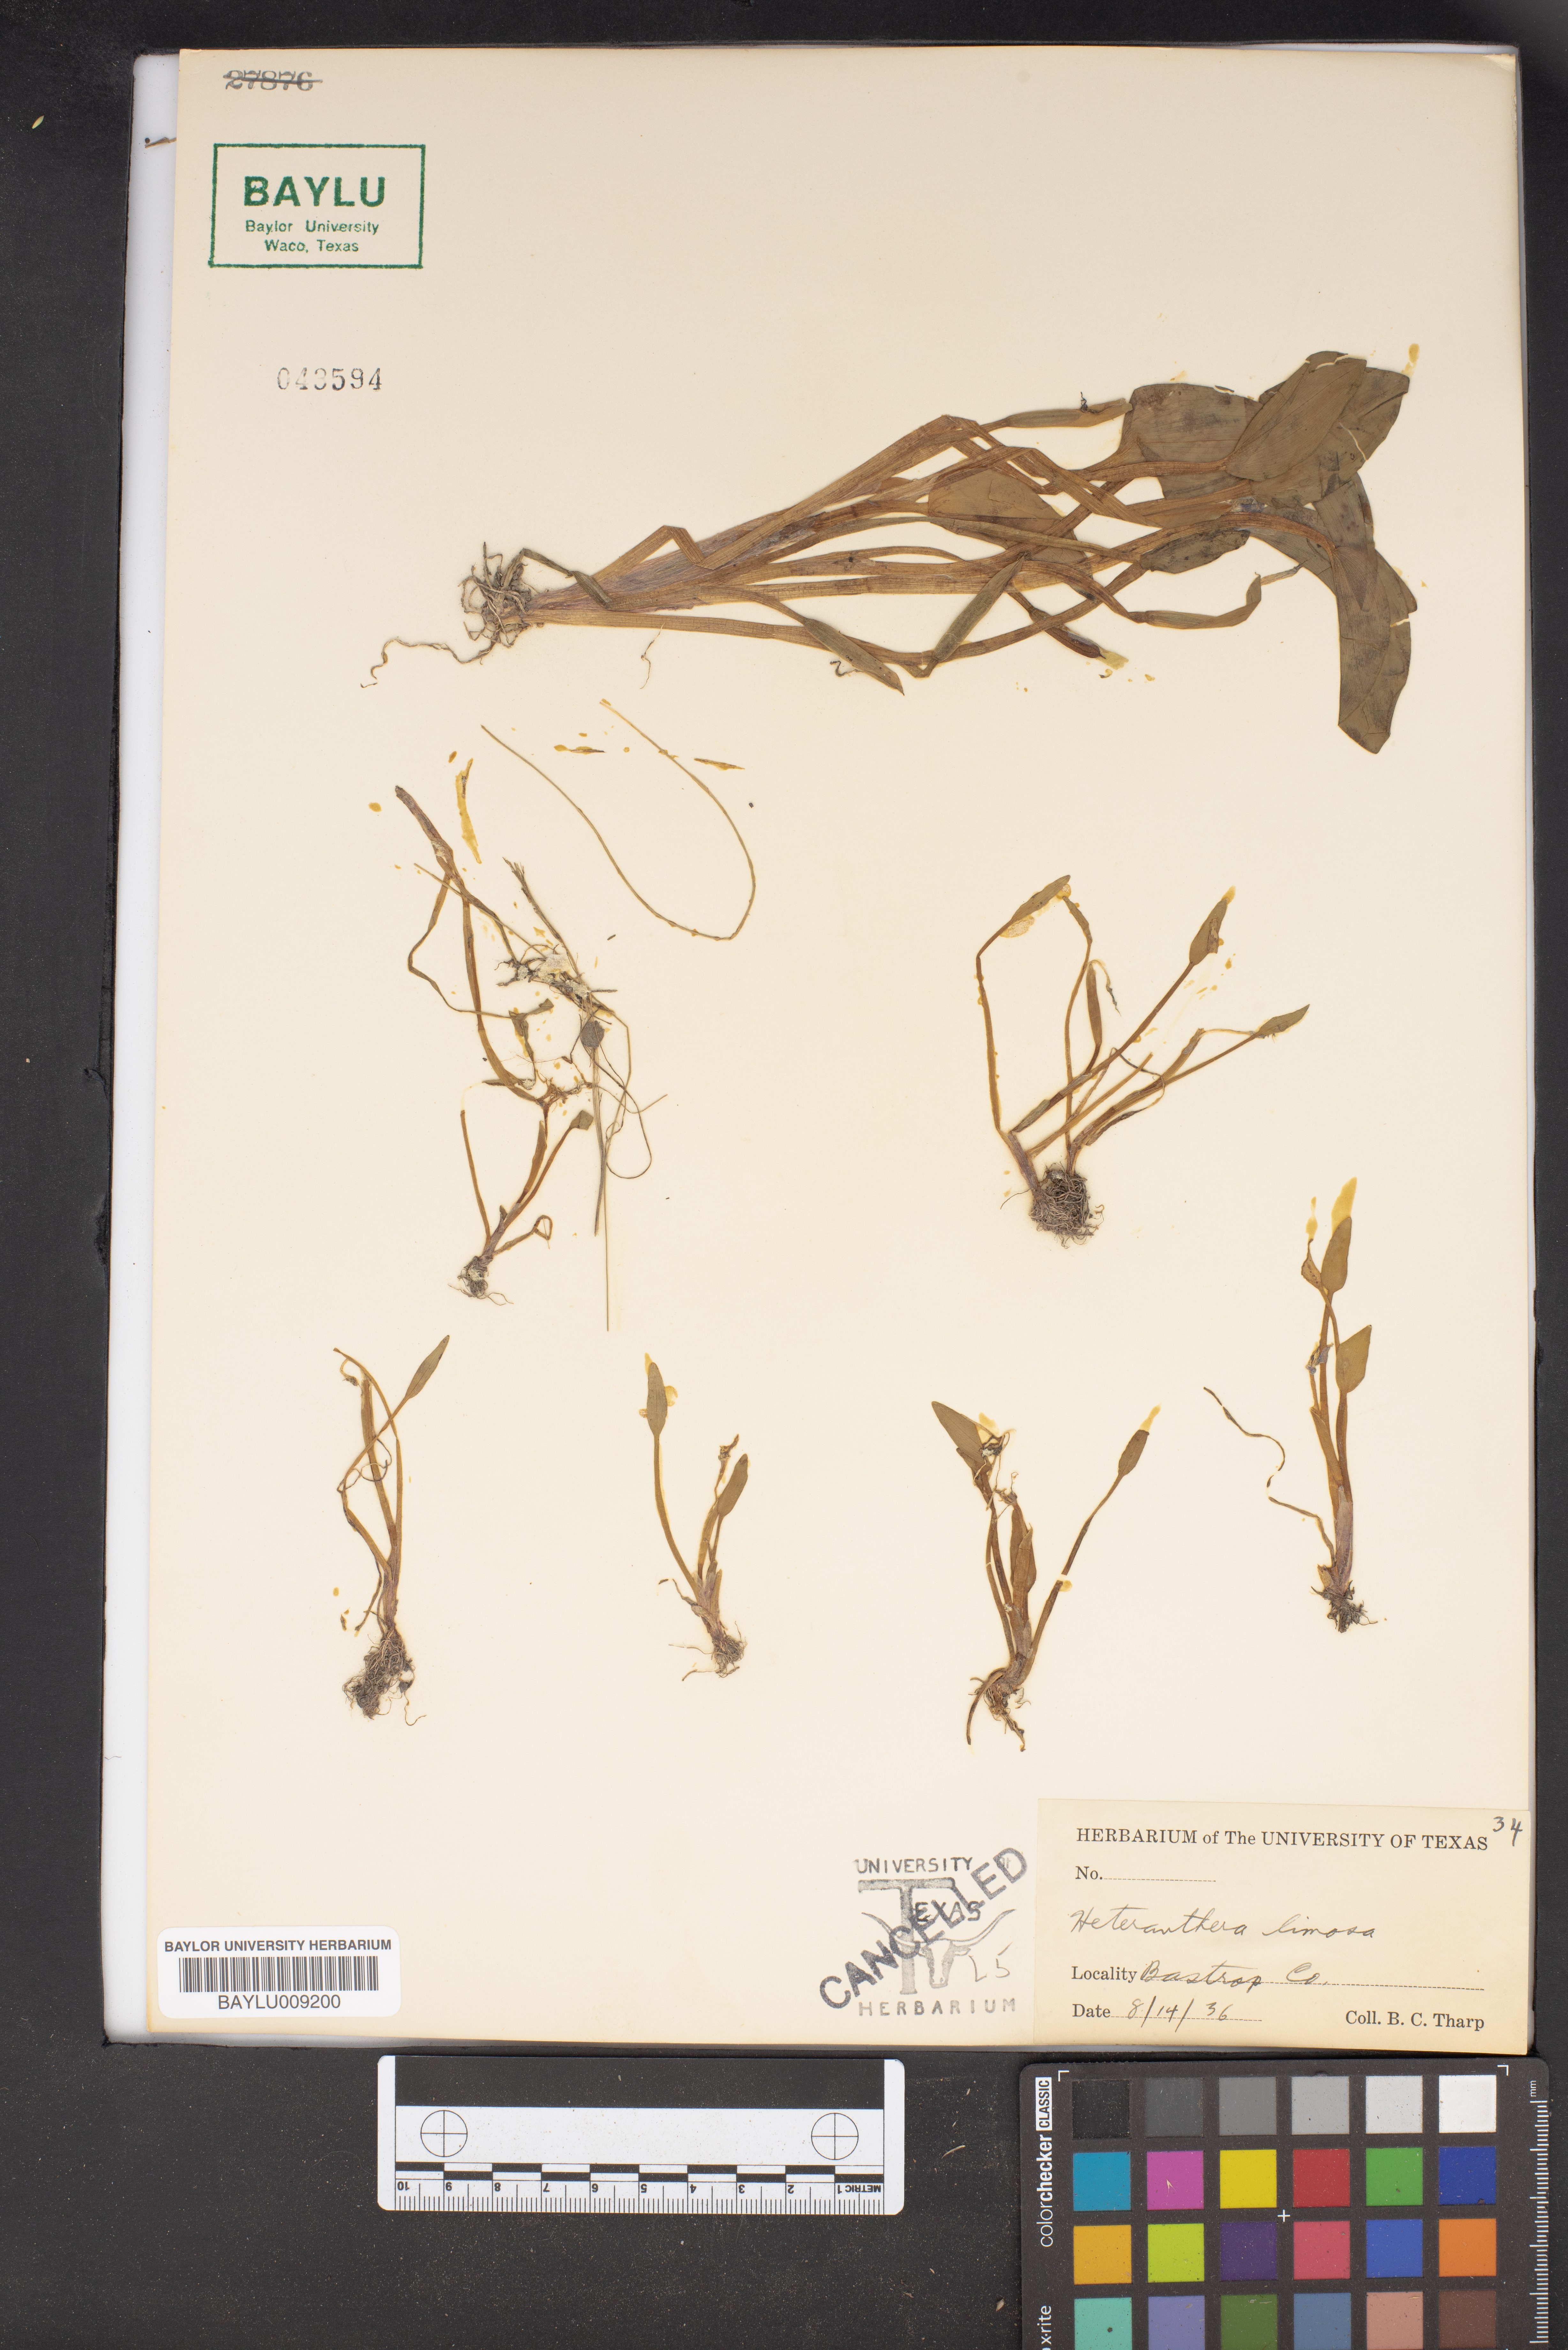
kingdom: Plantae
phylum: Tracheophyta
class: Liliopsida
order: Commelinales
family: Pontederiaceae
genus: Heteranthera
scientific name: Heteranthera limosa
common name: Blue mud-plantain
